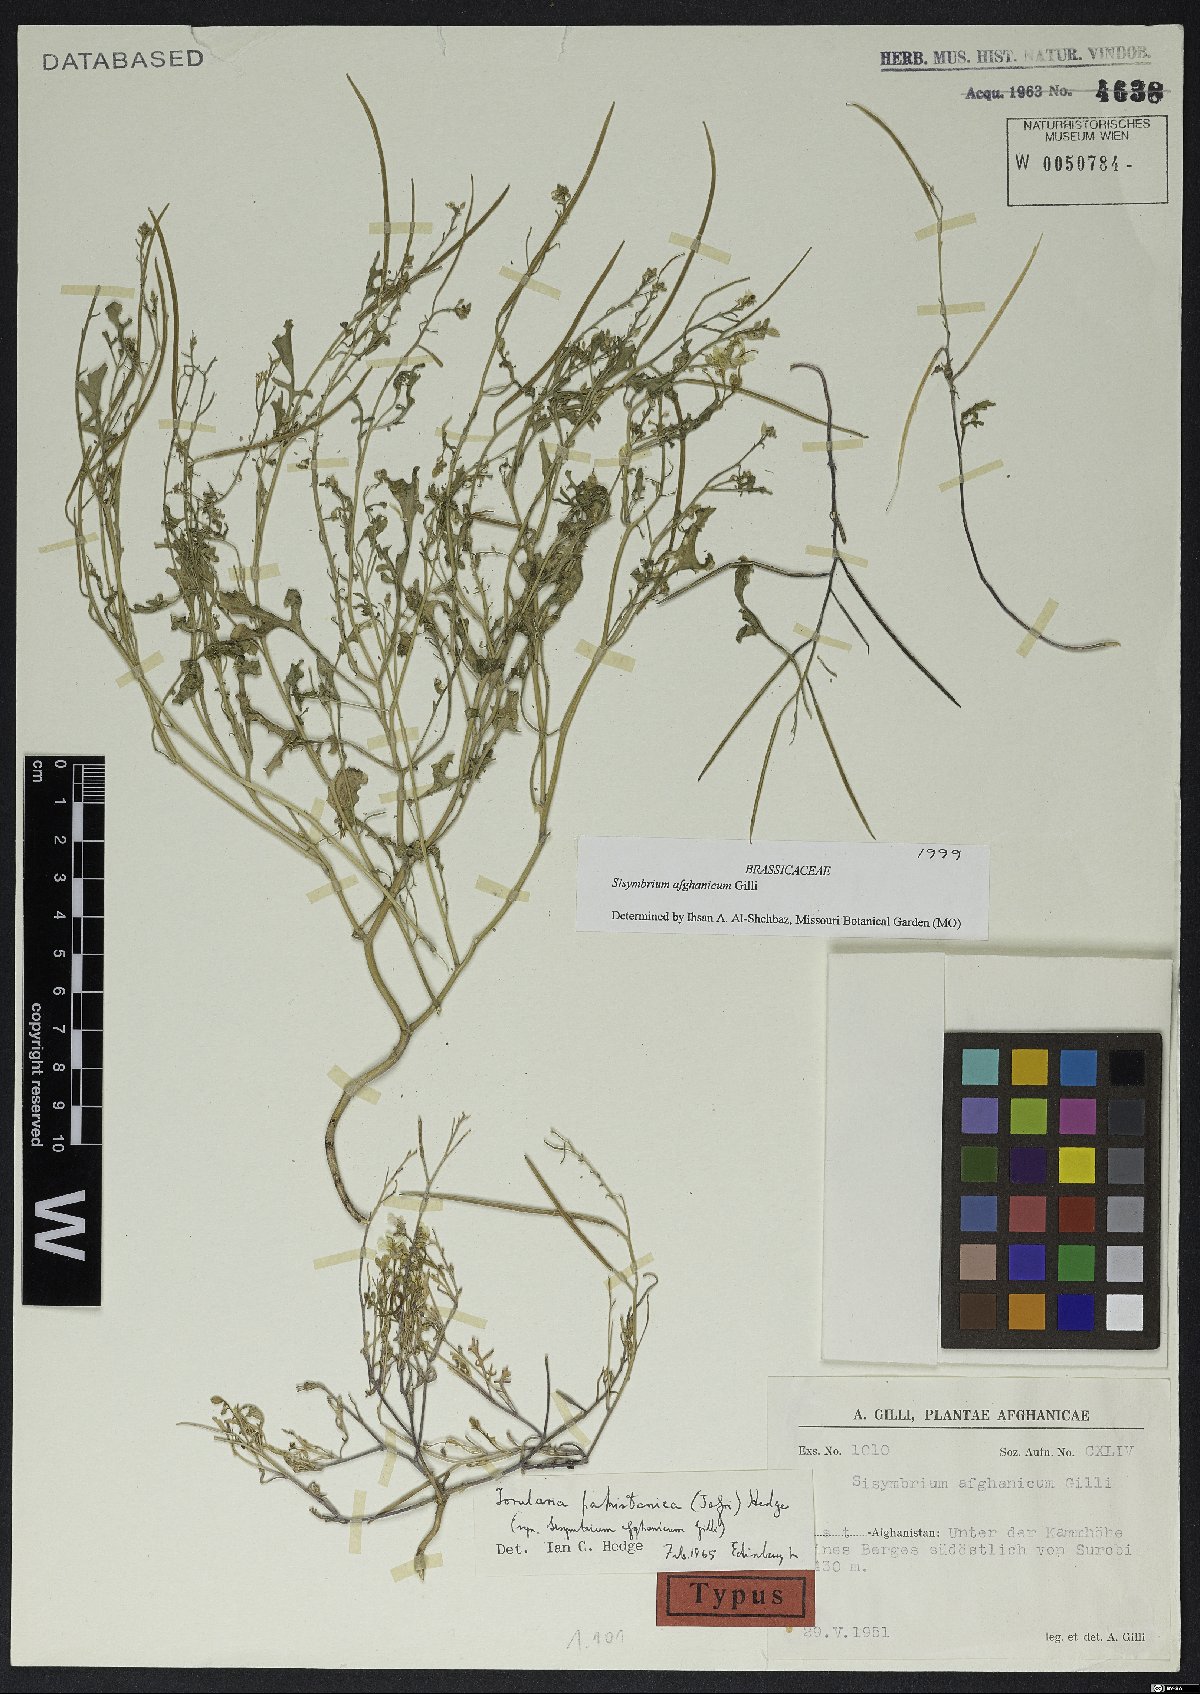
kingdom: Plantae
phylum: Tracheophyta
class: Magnoliopsida
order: Brassicales
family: Brassicaceae
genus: Sisymbrium
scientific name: Sisymbrium afghanicum
